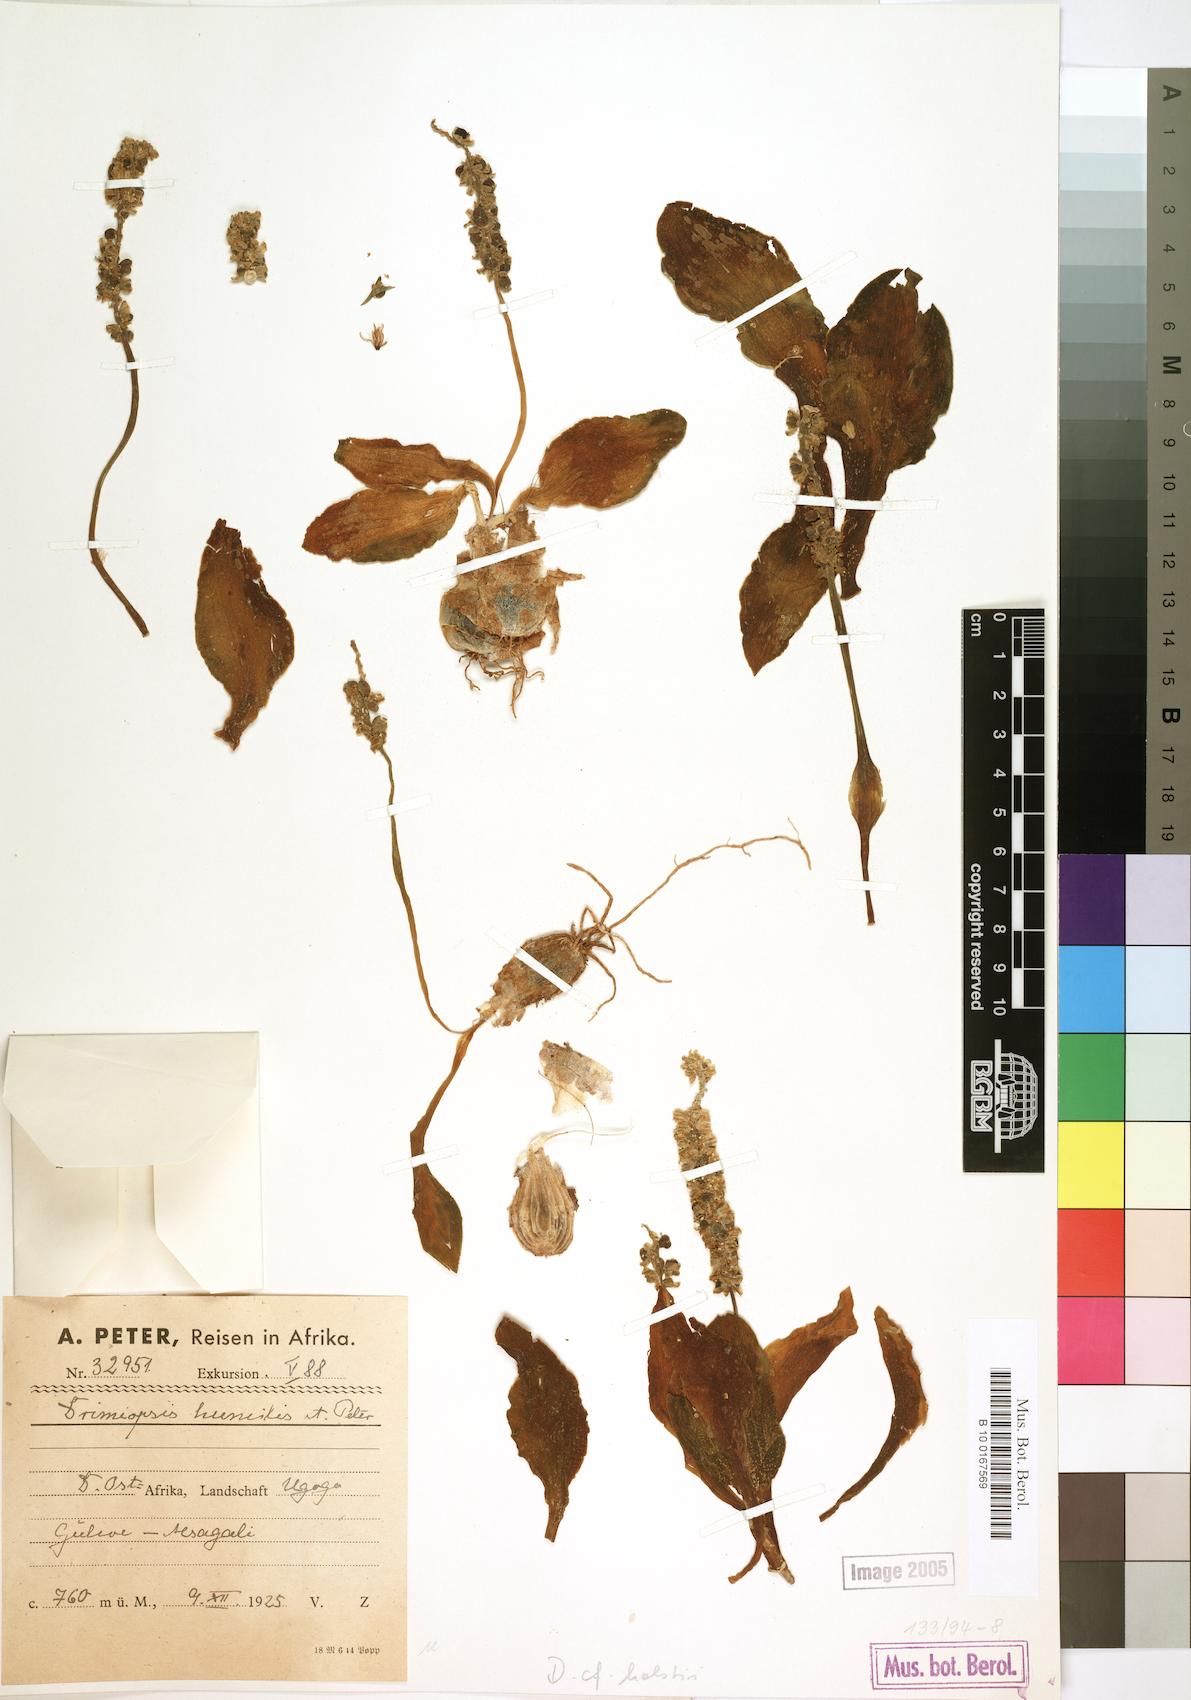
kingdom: Plantae
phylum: Tracheophyta
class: Liliopsida
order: Asparagales
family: Asparagaceae
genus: Drimiopsis
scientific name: Drimiopsis
